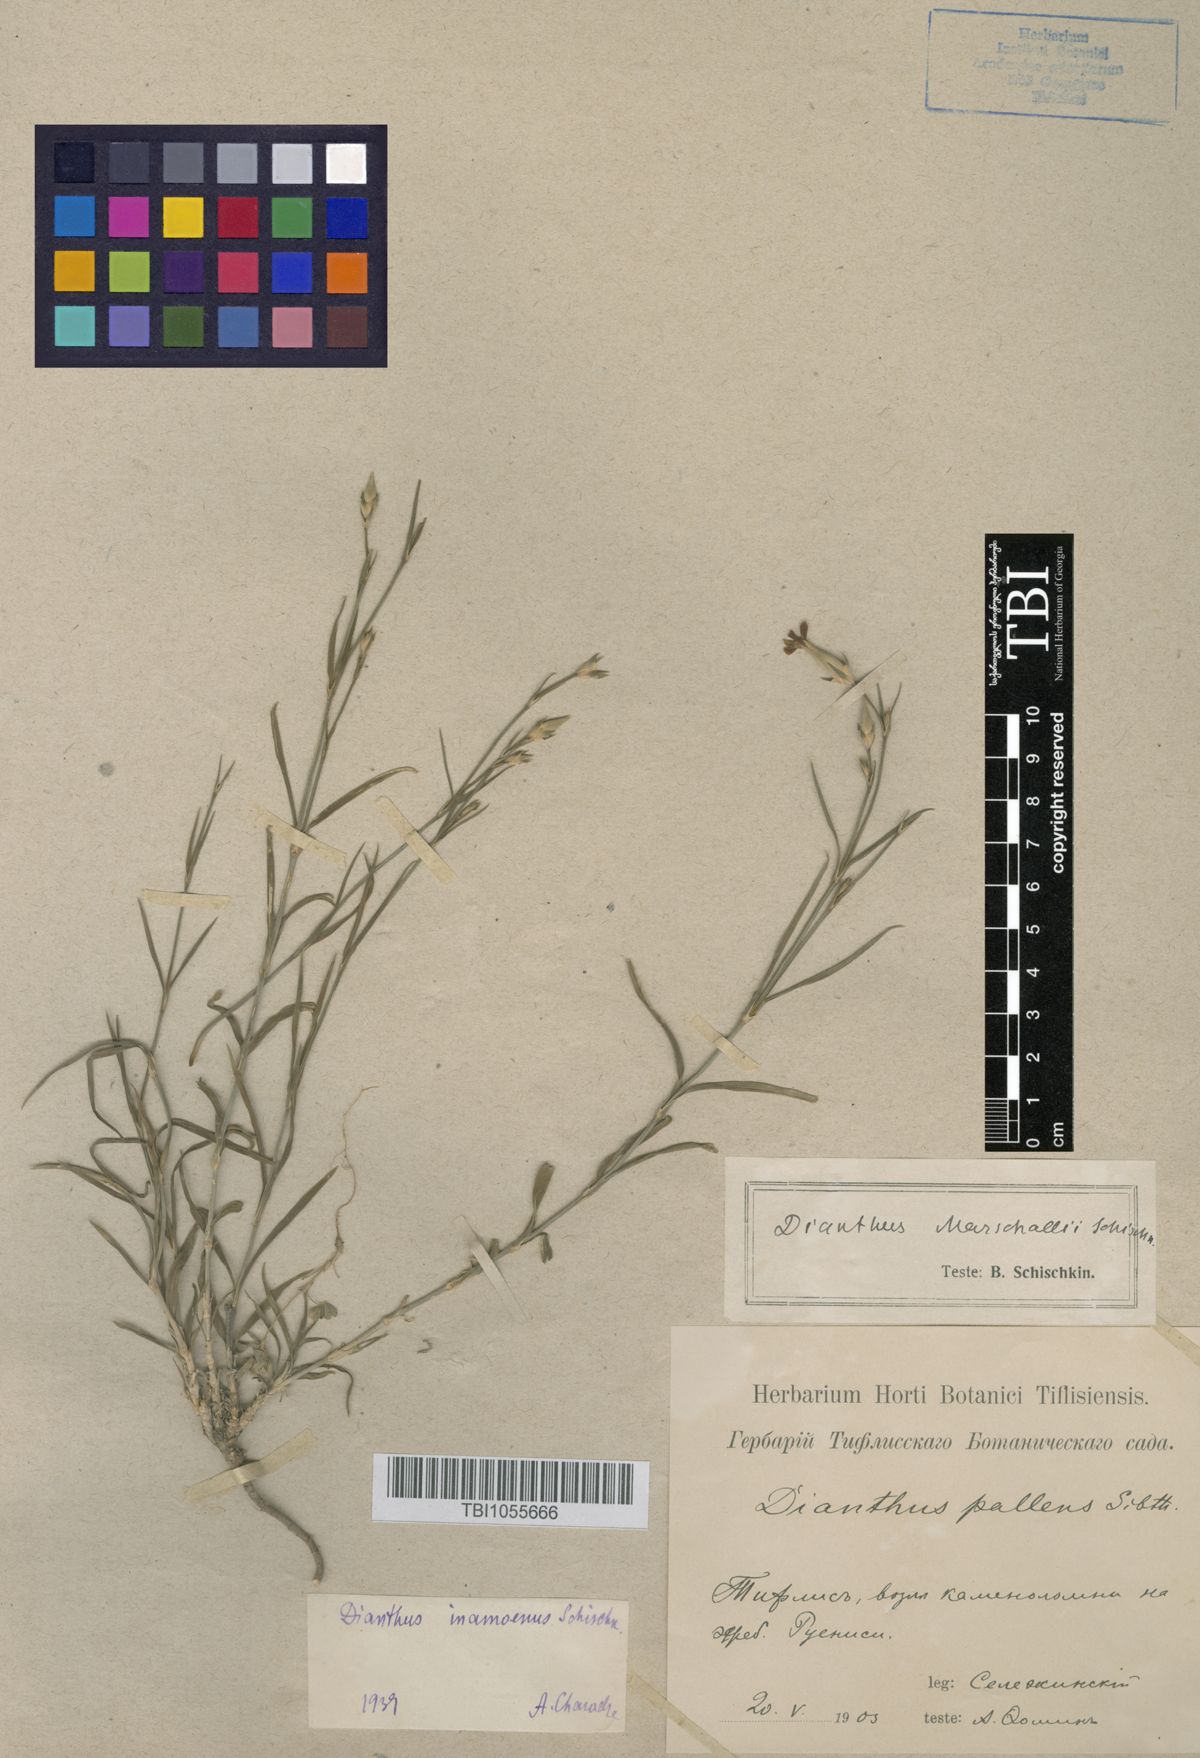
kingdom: Plantae
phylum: Tracheophyta
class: Magnoliopsida
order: Caryophyllales
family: Caryophyllaceae
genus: Dianthus
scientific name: Dianthus inamoenus
